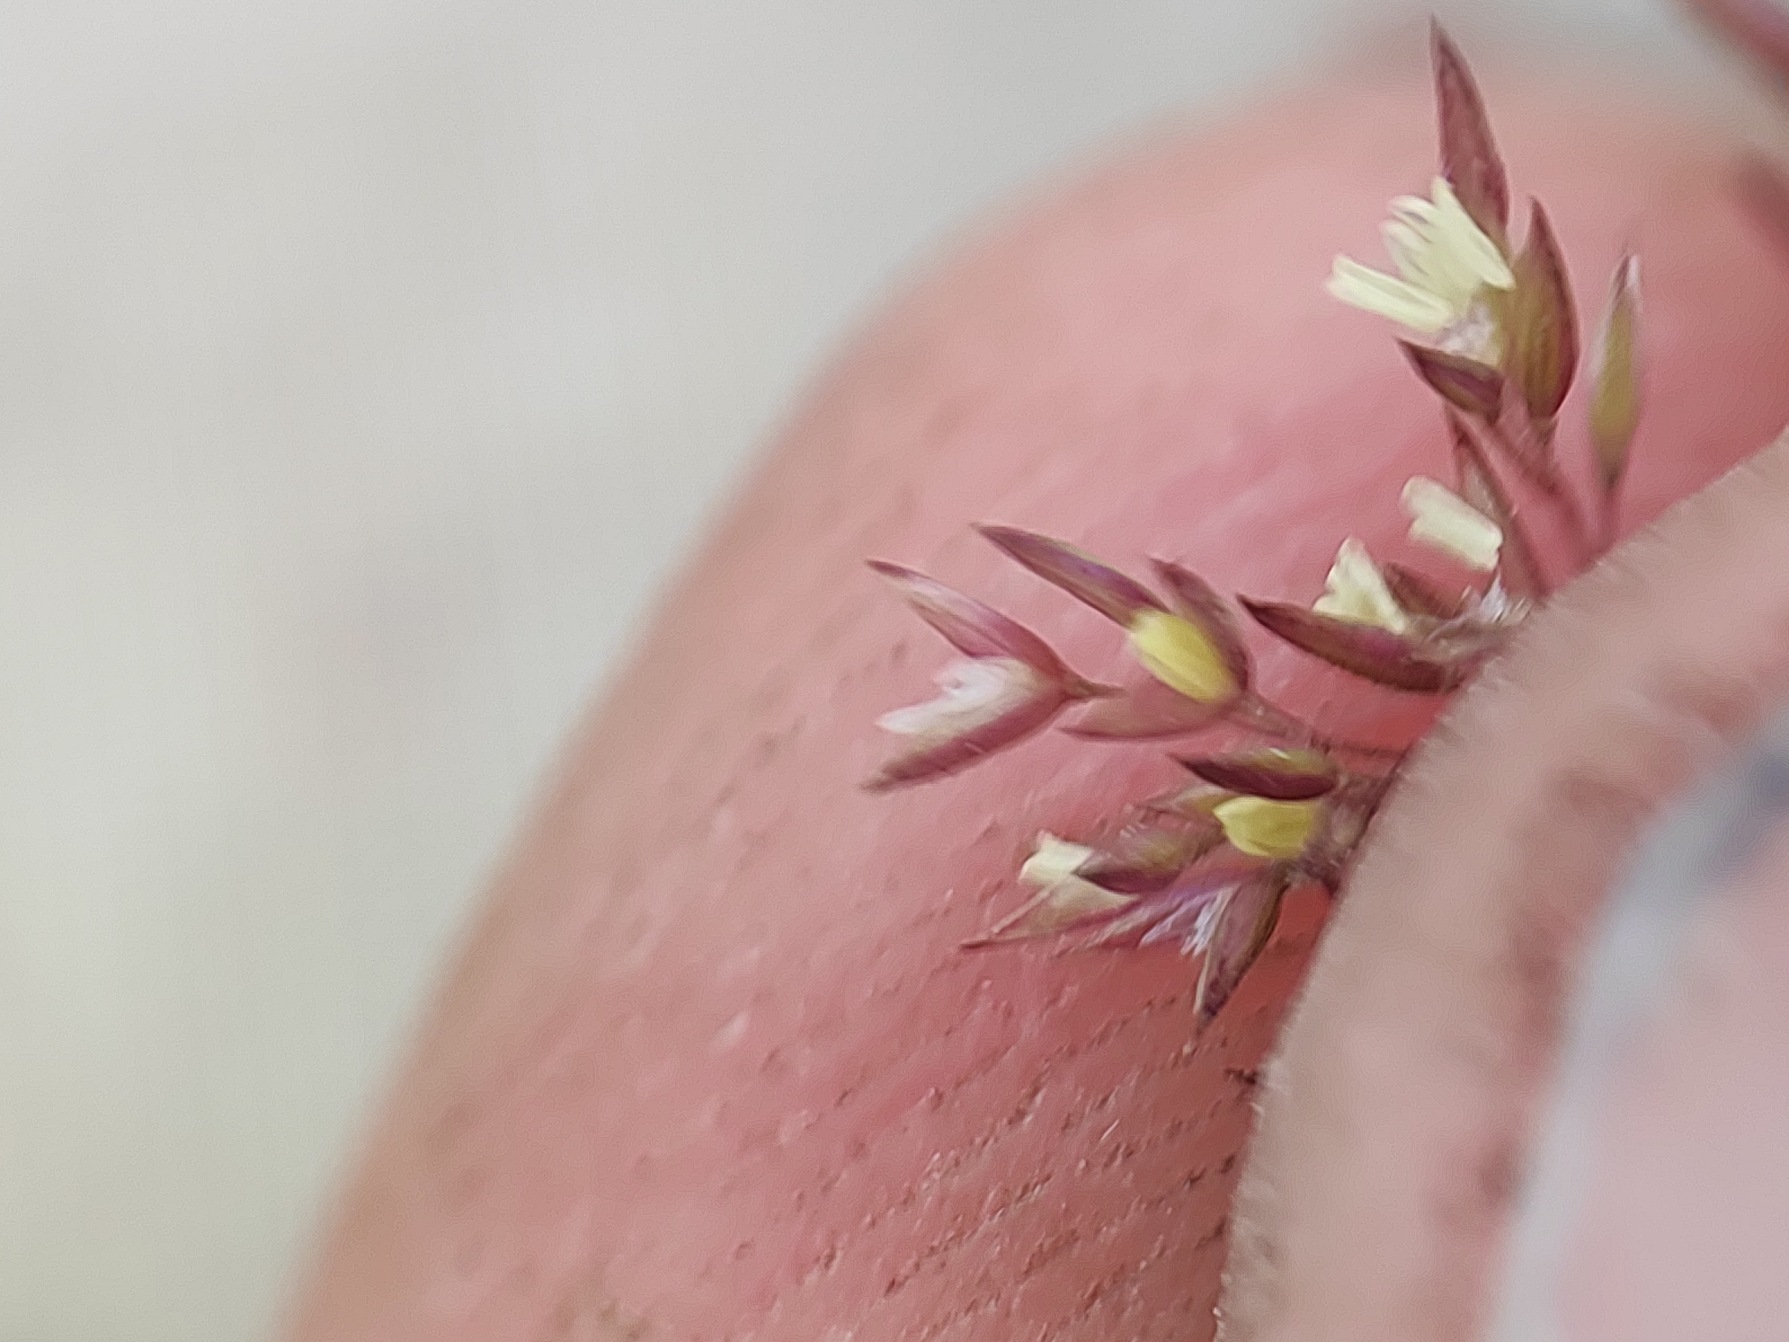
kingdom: Plantae
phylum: Tracheophyta
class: Liliopsida
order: Poales
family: Poaceae
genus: Agrostis
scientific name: Agrostis gigantea
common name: Stortoppet hvene
